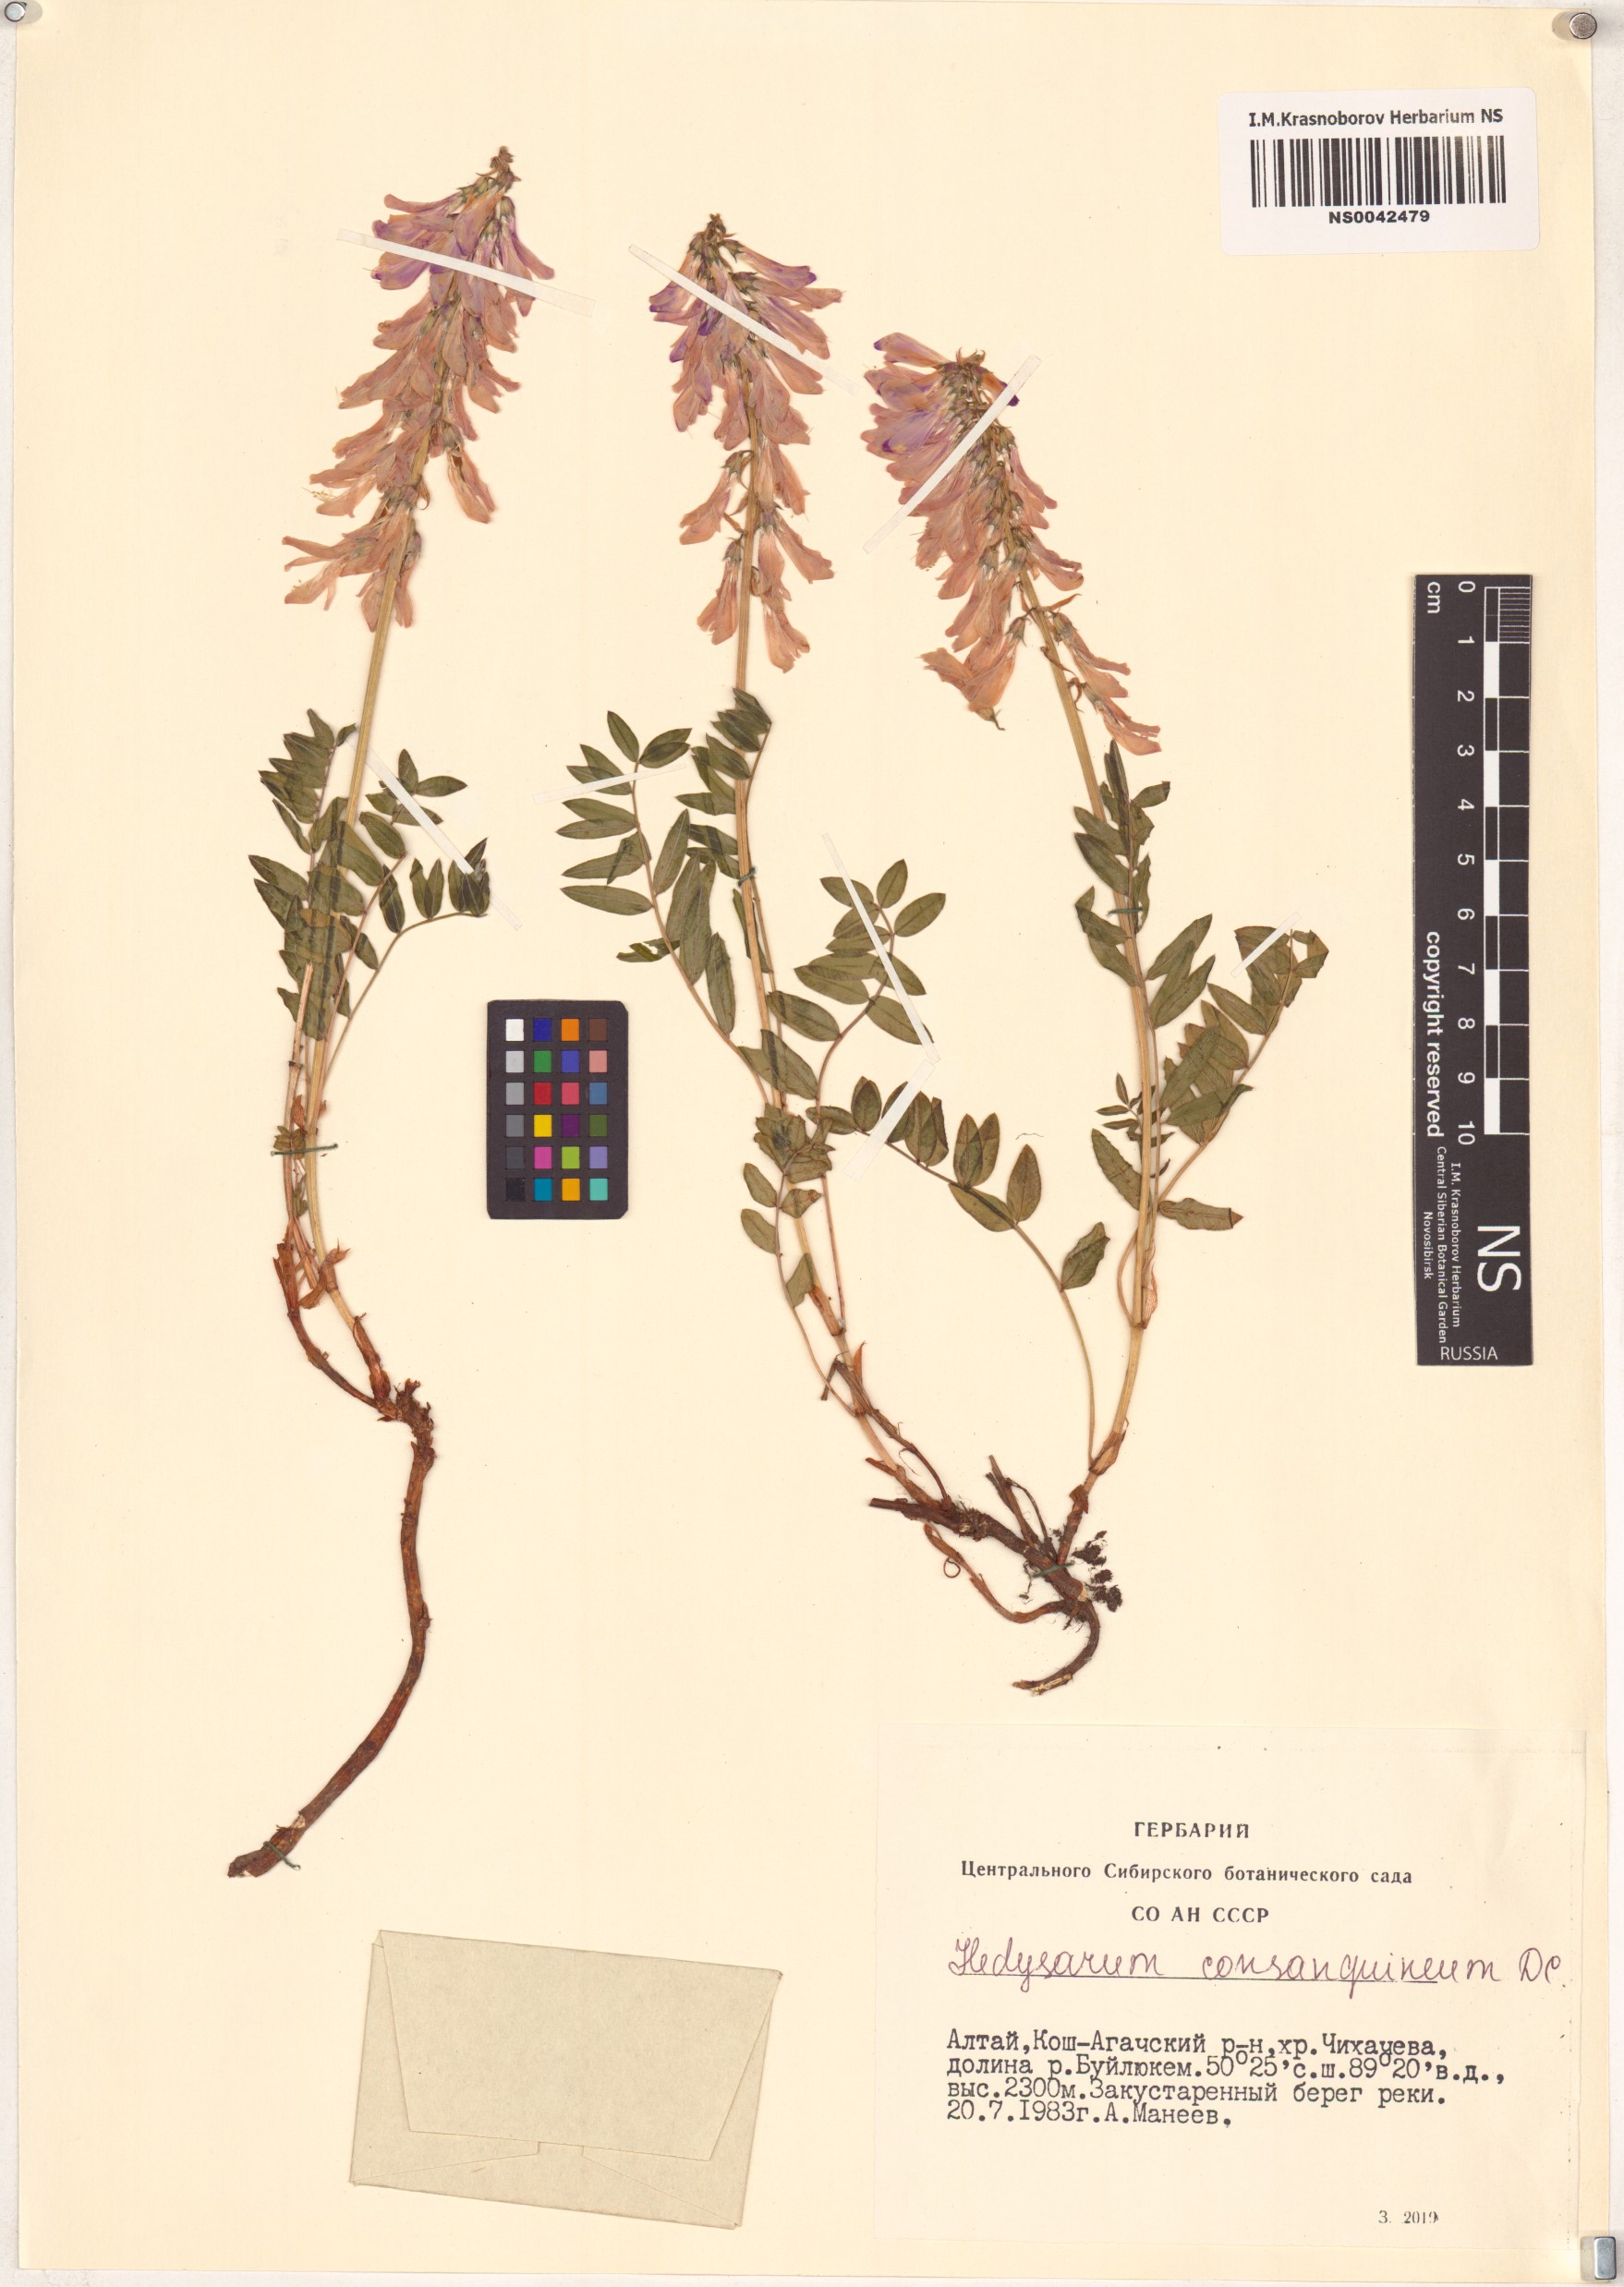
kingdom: Plantae
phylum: Tracheophyta
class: Magnoliopsida
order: Fabales
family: Fabaceae
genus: Hedysarum
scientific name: Hedysarum consanguineum
